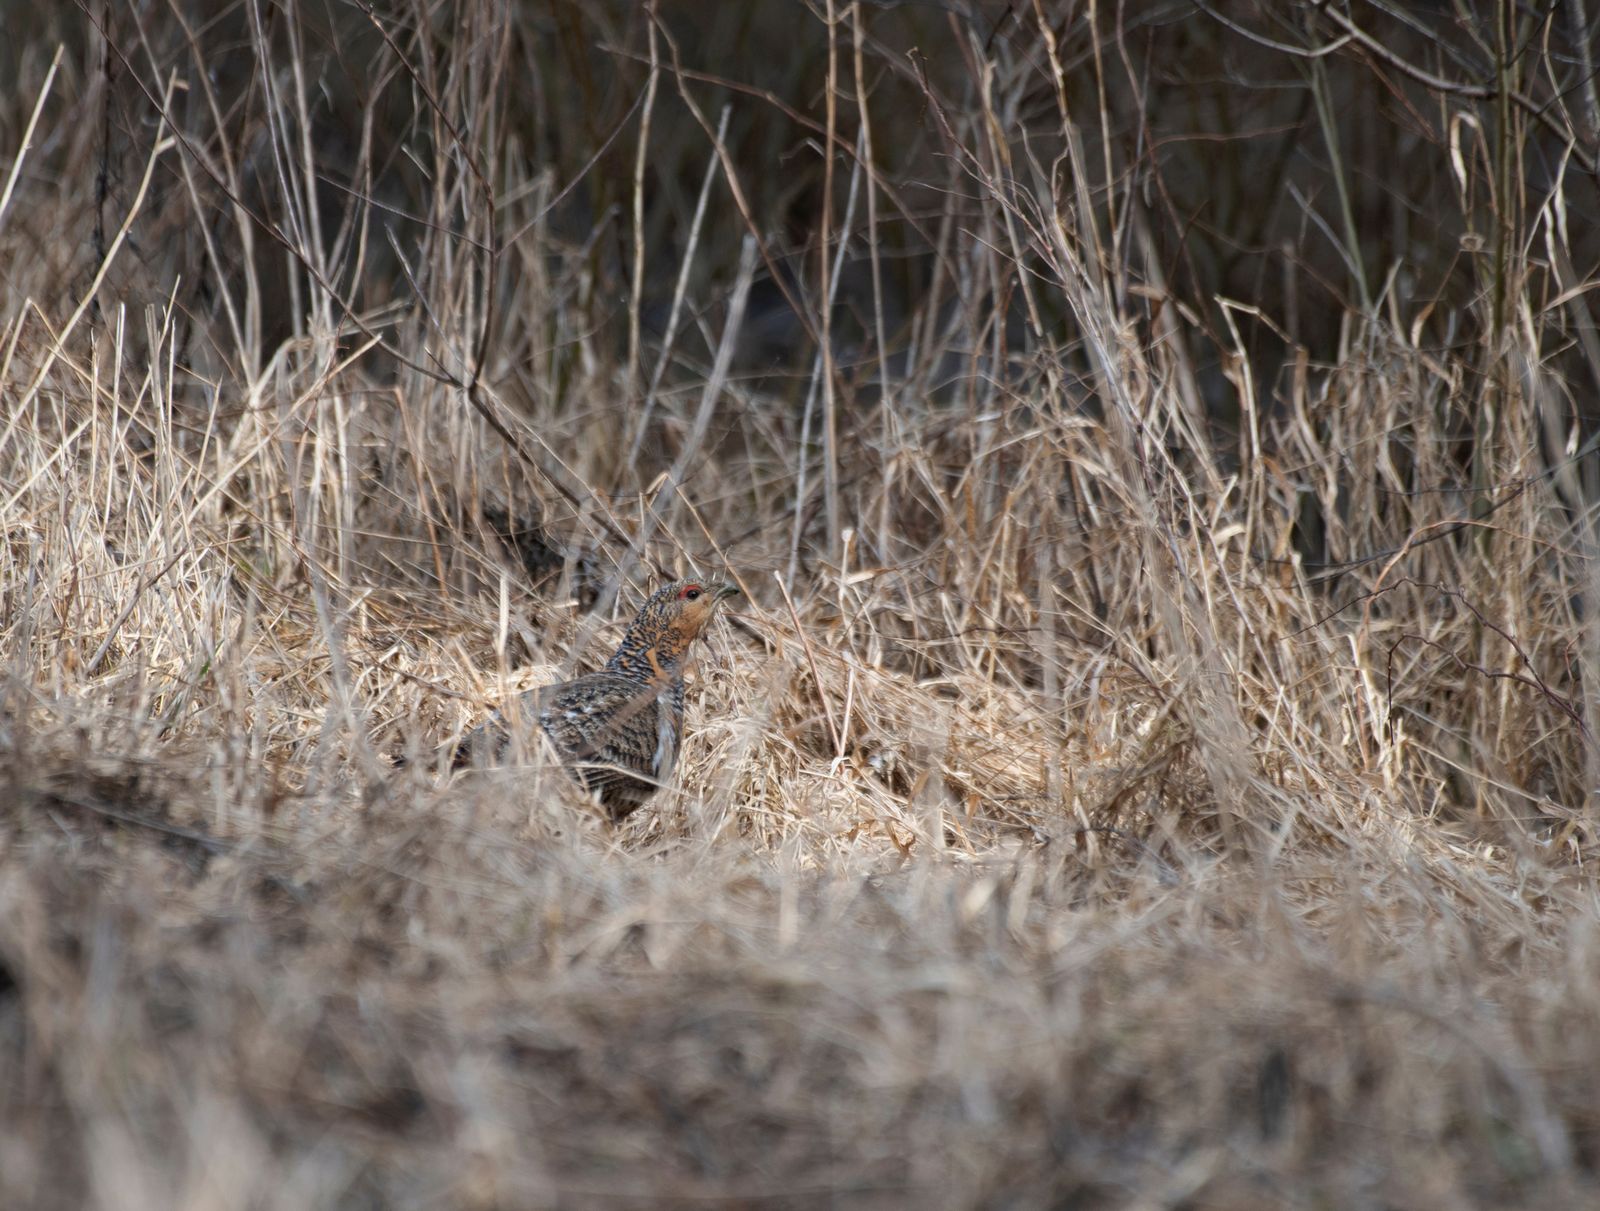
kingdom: Animalia
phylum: Chordata
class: Aves
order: Galliformes
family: Phasianidae
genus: Tetrao
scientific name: Tetrao urogallus
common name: Western capercaillie
